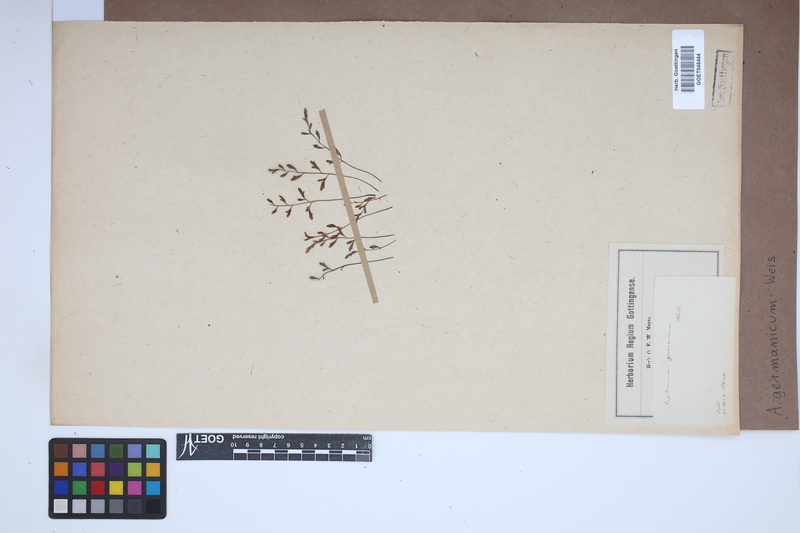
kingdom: Plantae
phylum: Tracheophyta
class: Polypodiopsida
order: Polypodiales
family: Aspleniaceae
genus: Asplenium
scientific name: Asplenium
